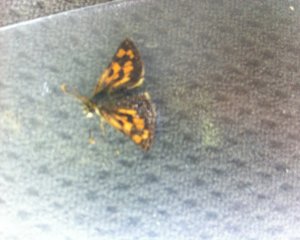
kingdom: Animalia
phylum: Arthropoda
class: Insecta
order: Lepidoptera
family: Hesperiidae
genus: Carterocephalus
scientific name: Carterocephalus palaemon
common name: Chequered Skipper
